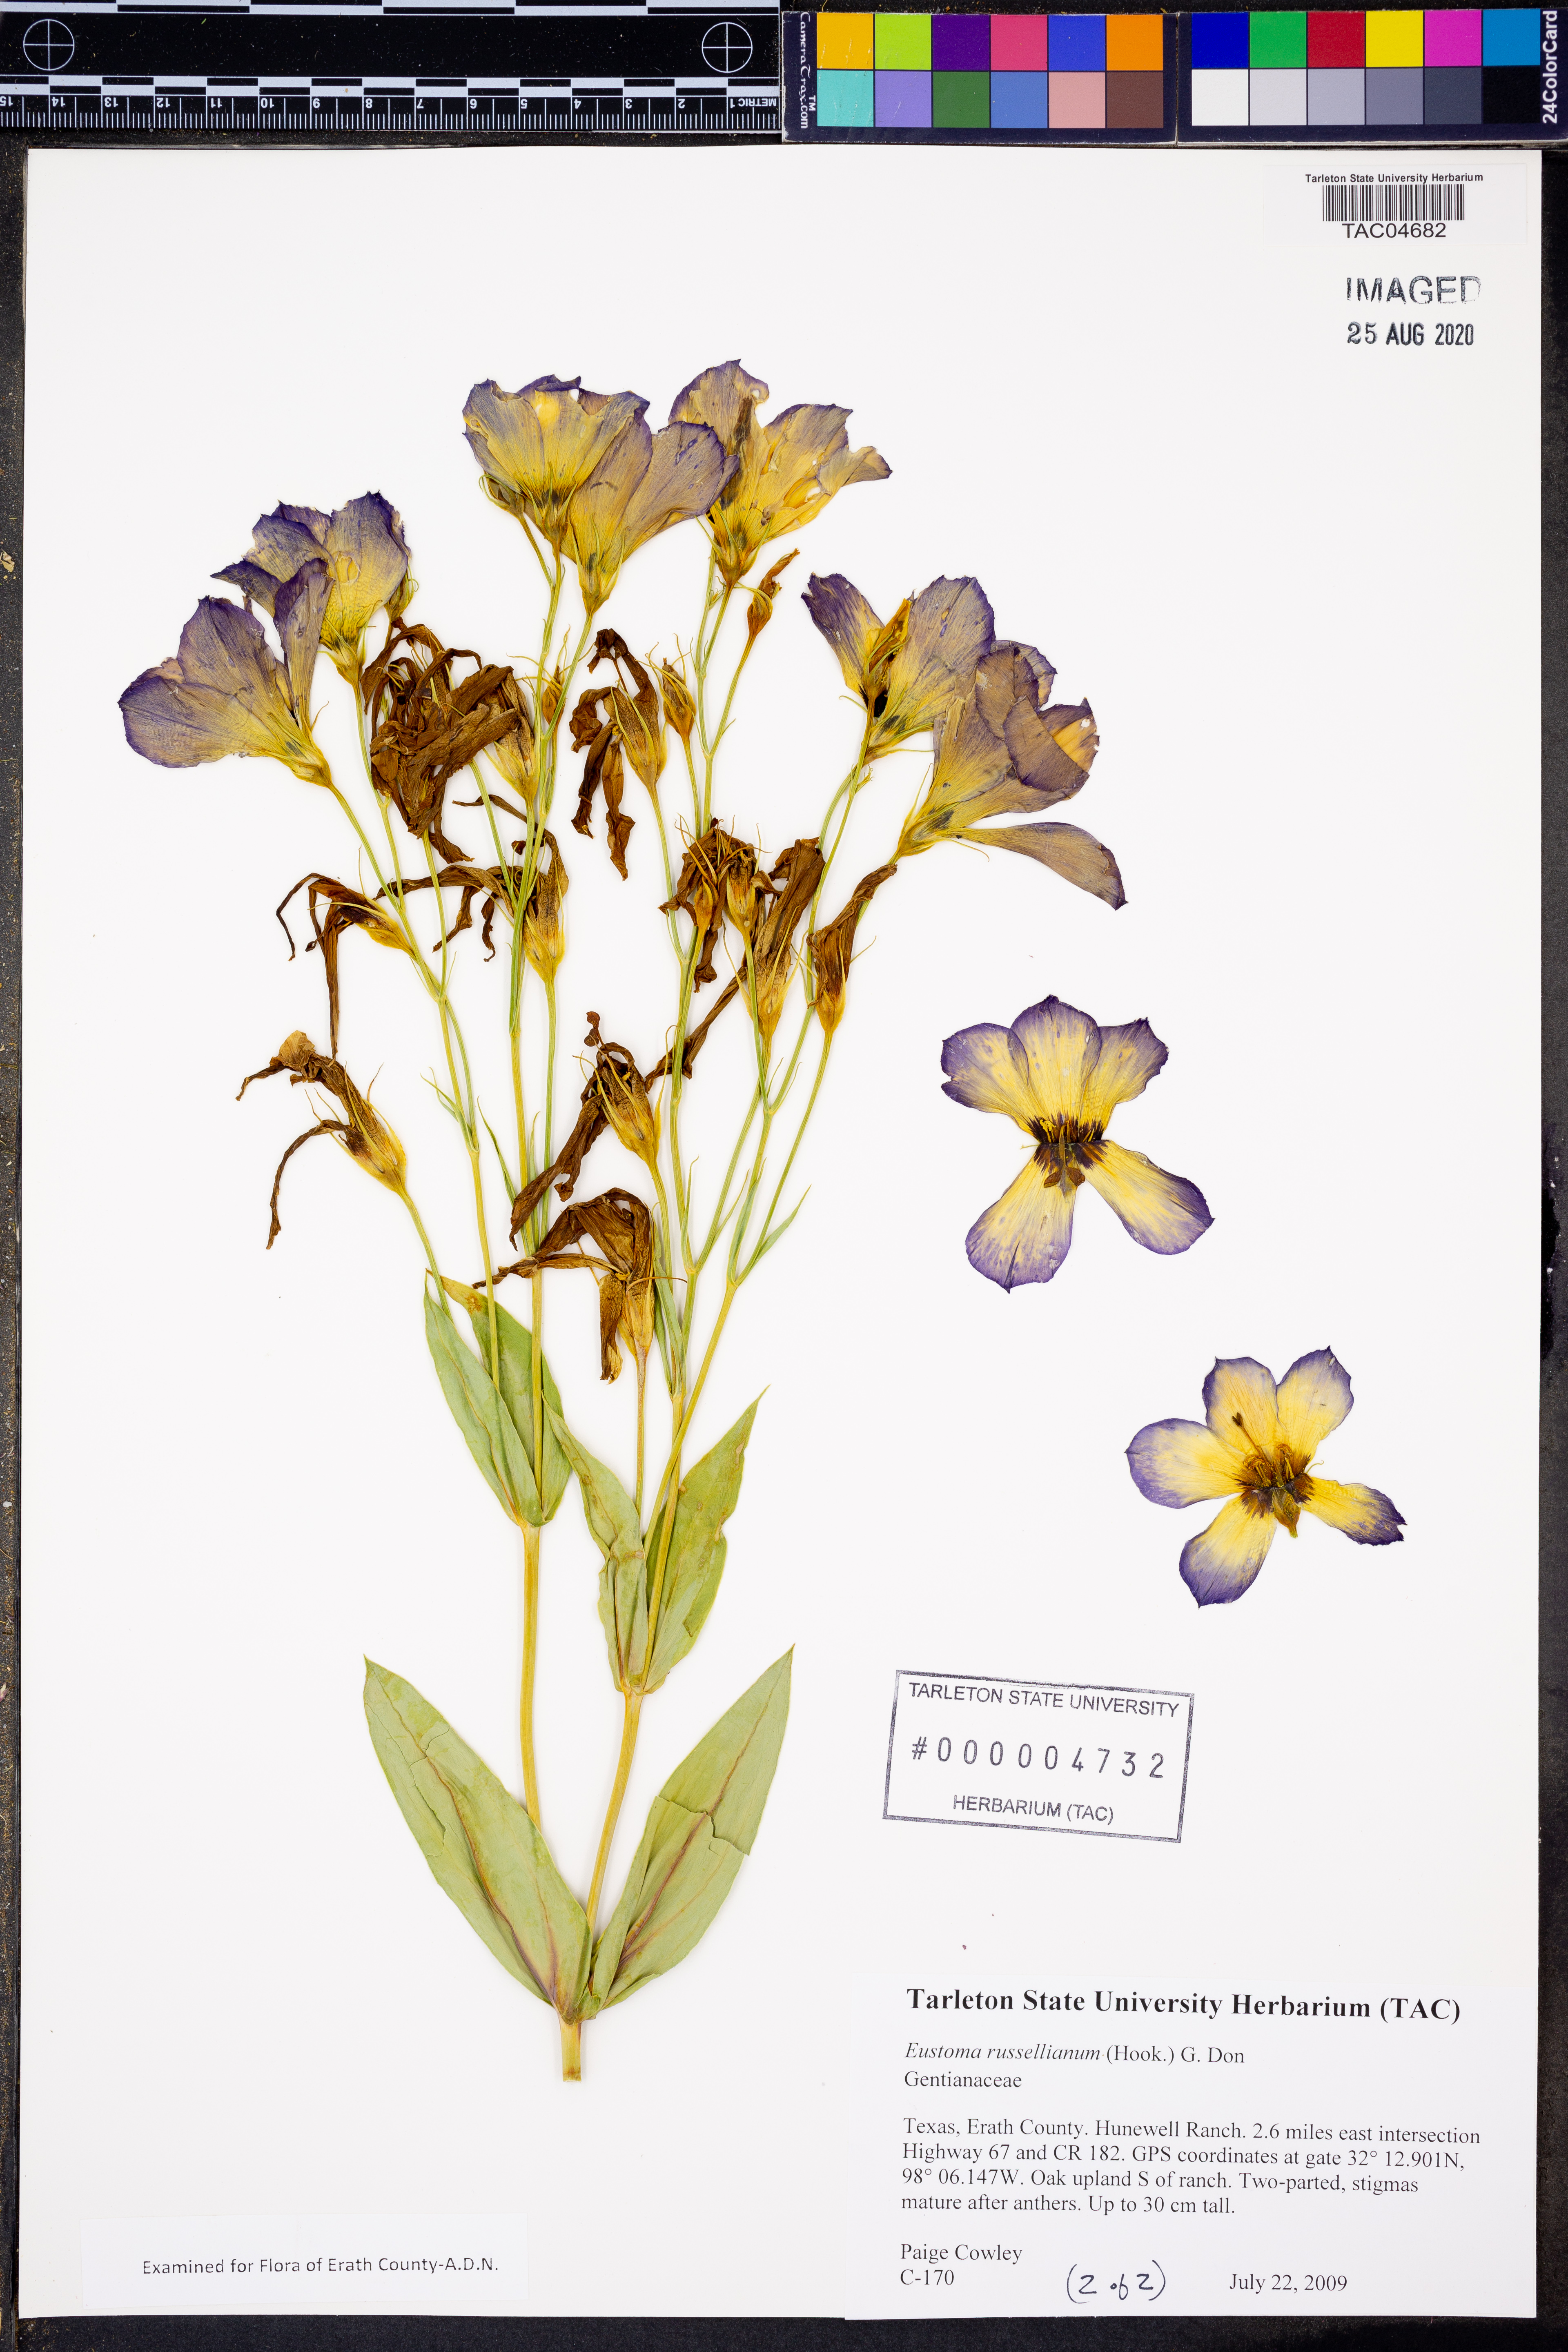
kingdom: Plantae
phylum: Tracheophyta
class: Magnoliopsida
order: Gentianales
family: Gentianaceae
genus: Eustoma
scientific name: Eustoma russellianum
